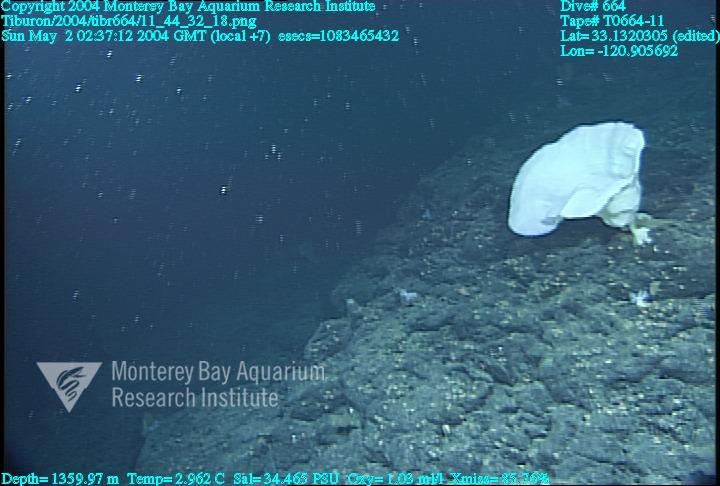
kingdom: Animalia
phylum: Porifera
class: Hexactinellida
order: Sceptrulophora
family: Euretidae
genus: Chonelasma
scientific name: Chonelasma
